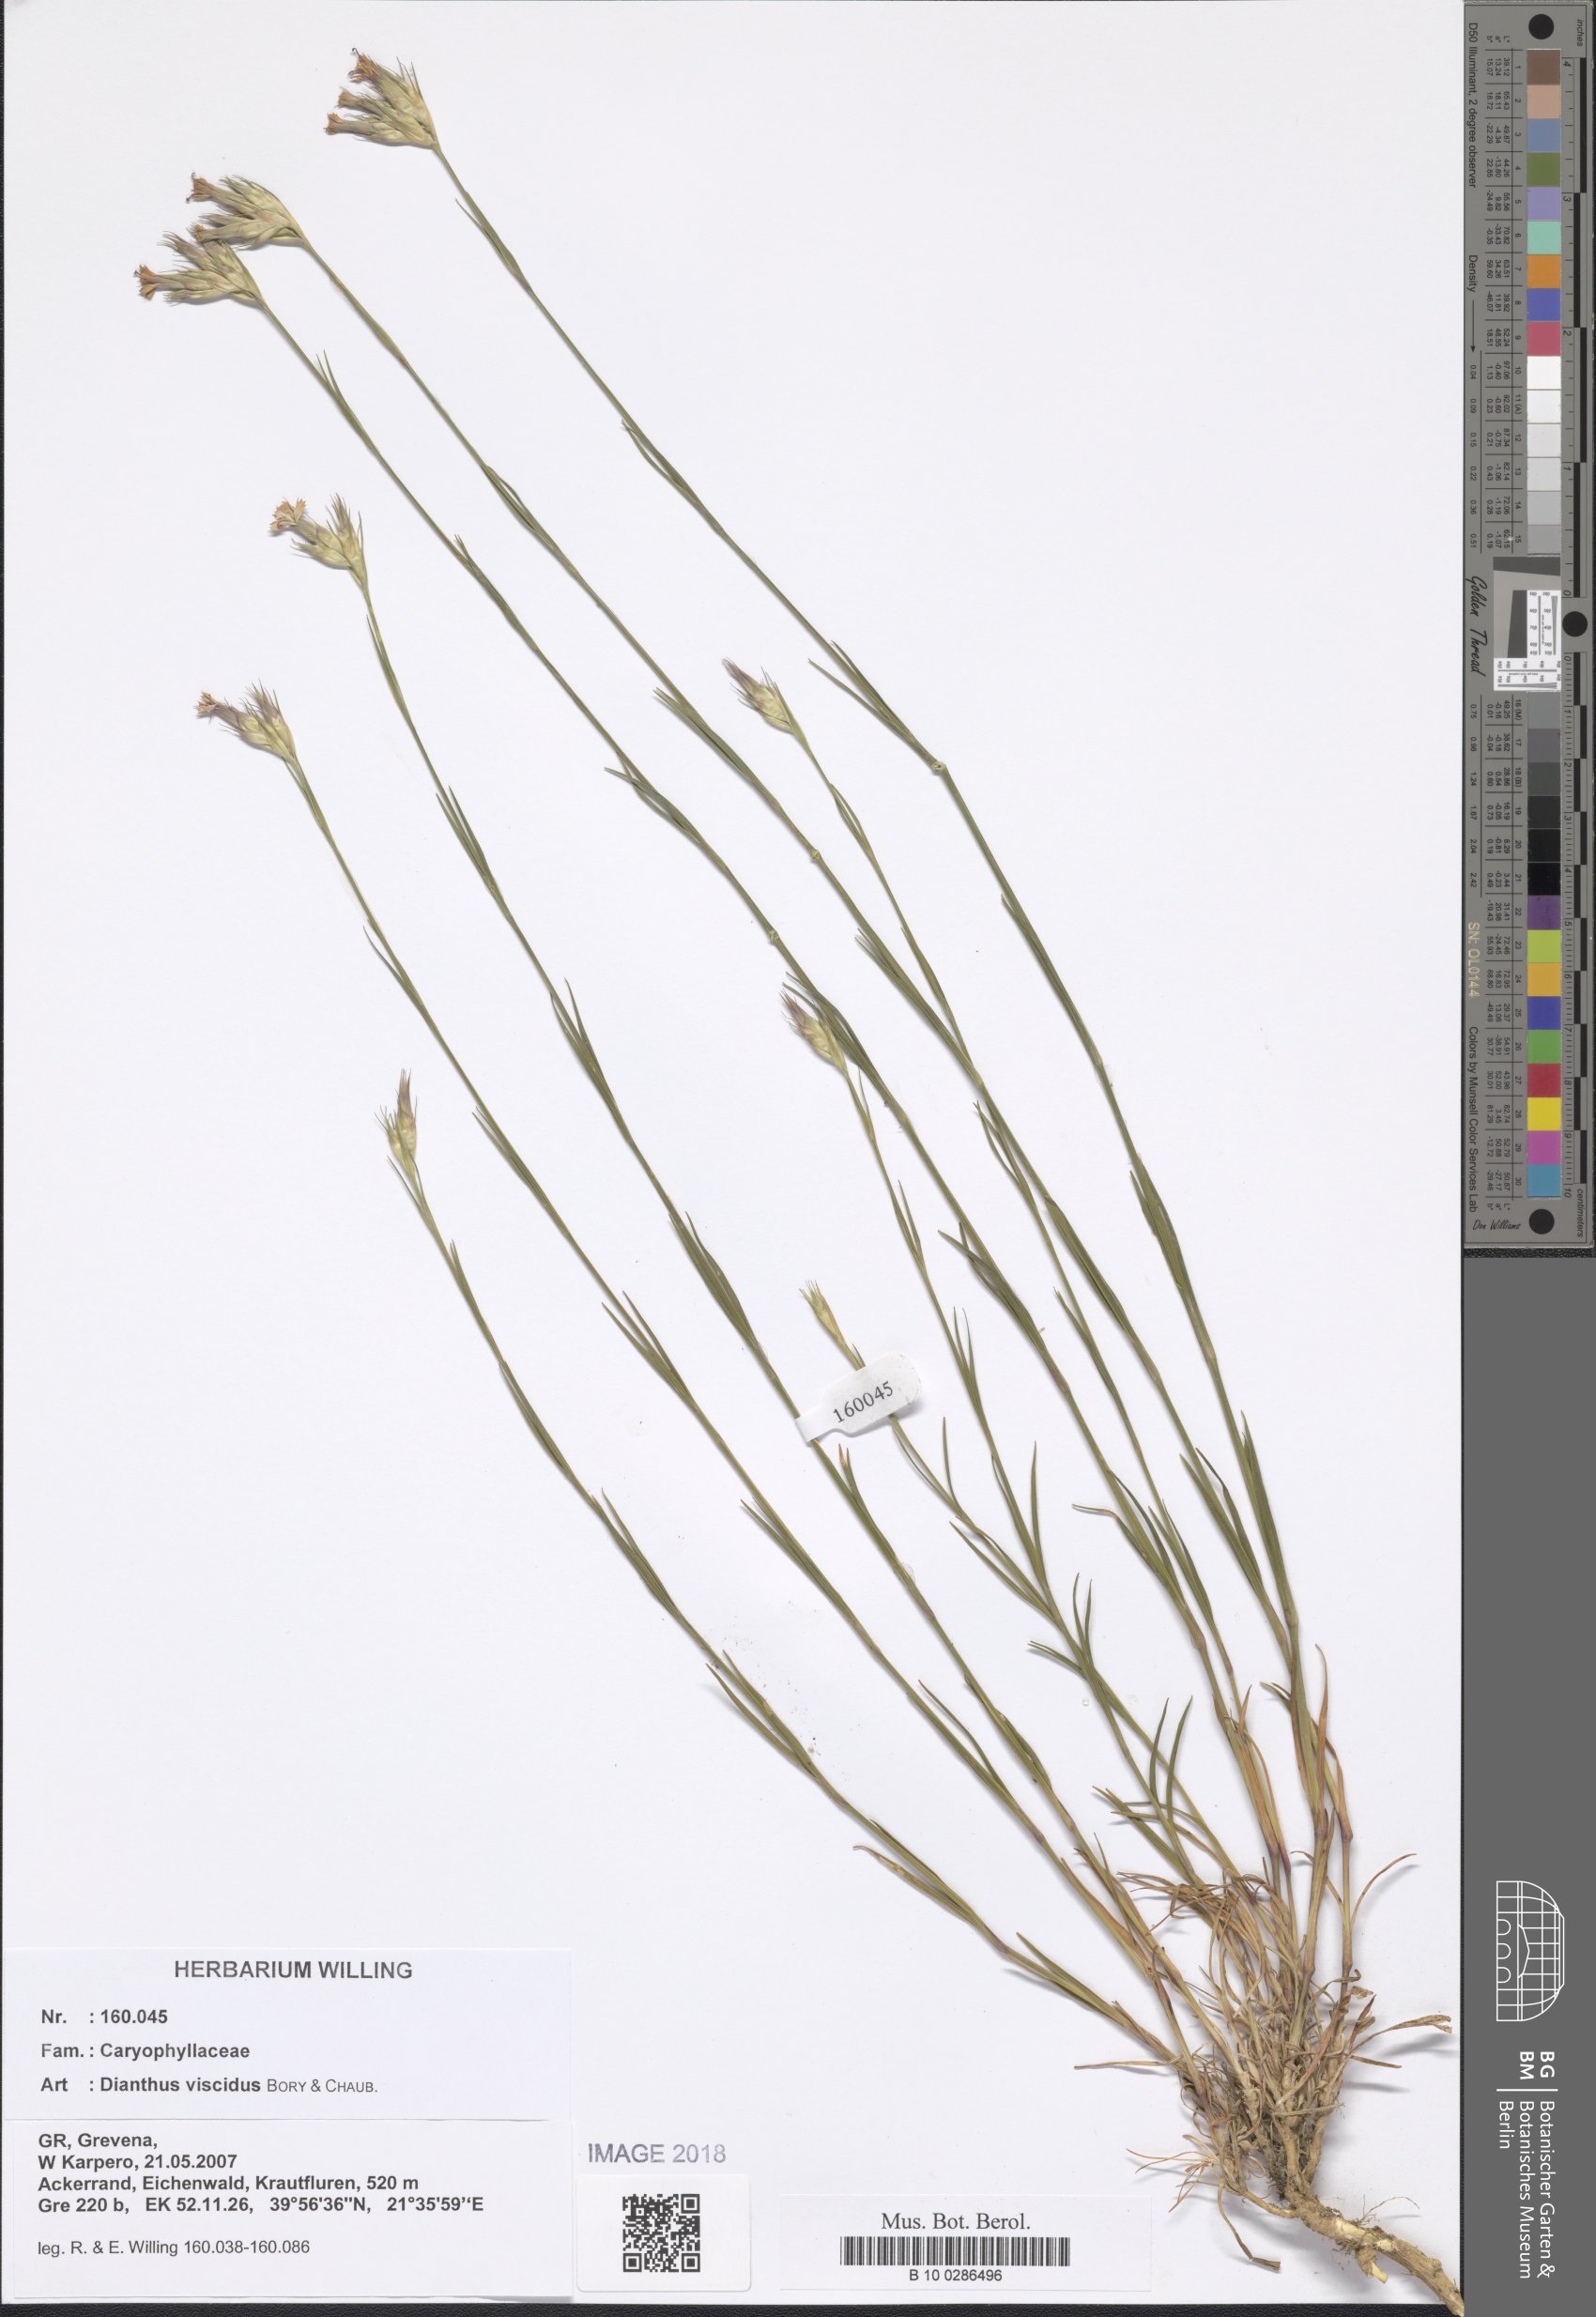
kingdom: Plantae
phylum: Tracheophyta
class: Magnoliopsida
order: Caryophyllales
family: Caryophyllaceae
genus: Dianthus
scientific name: Dianthus viscidus
